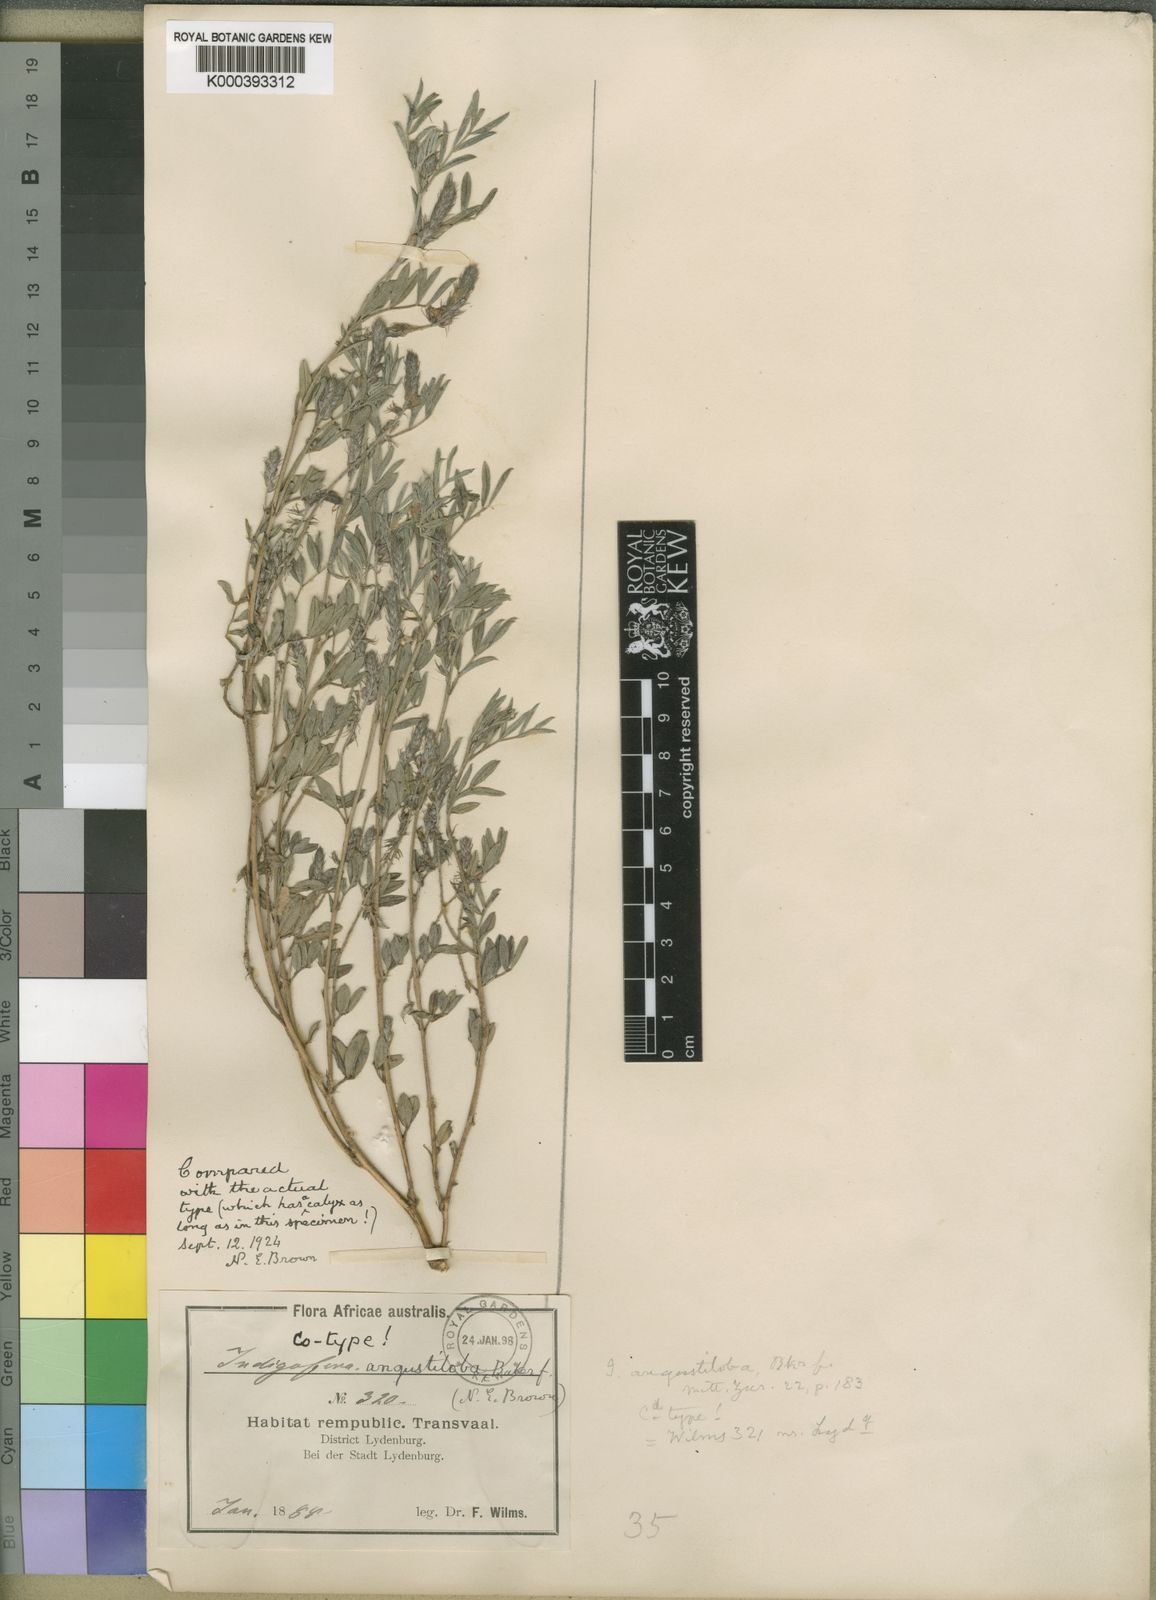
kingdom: Plantae
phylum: Tracheophyta
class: Magnoliopsida
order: Fabales
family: Fabaceae
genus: Indigofera
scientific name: Indigofera torulosa
